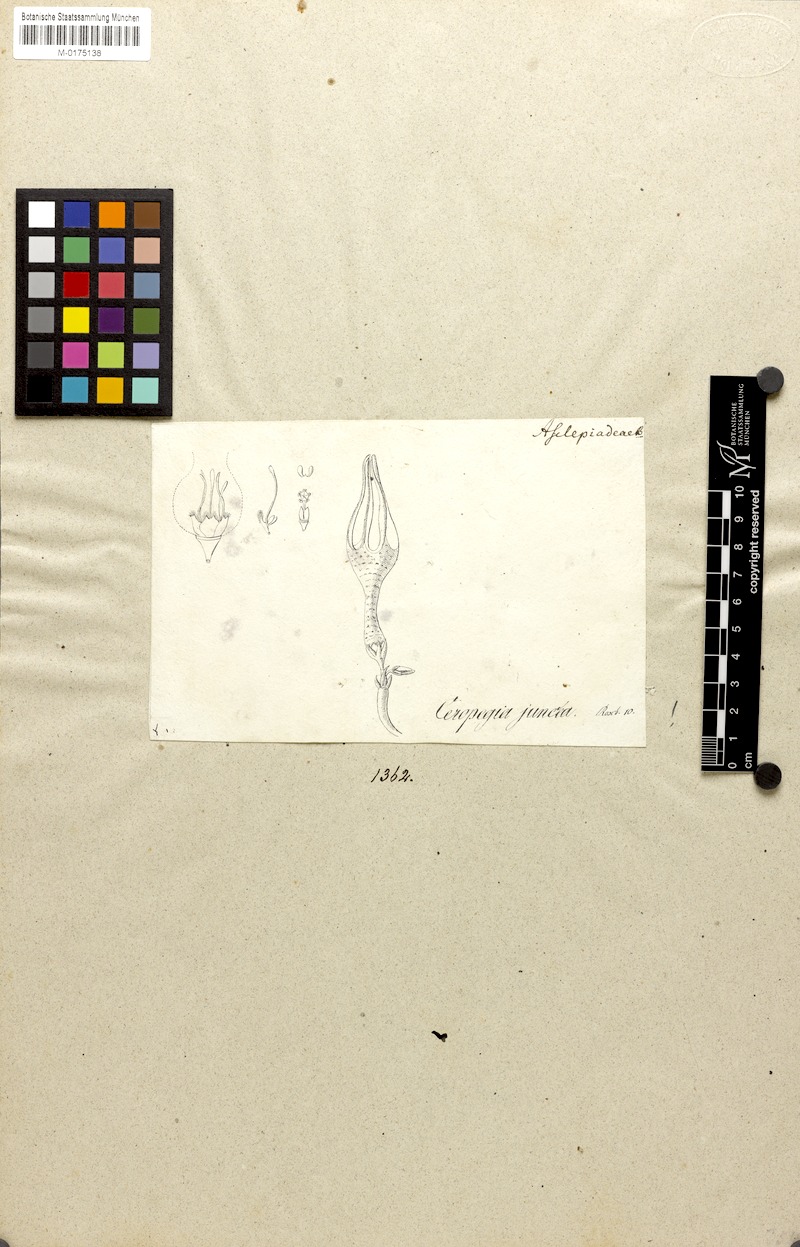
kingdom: Plantae
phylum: Tracheophyta
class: Magnoliopsida
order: Gentianales
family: Apocynaceae
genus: Ceropegia
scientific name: Ceropegia juncea
